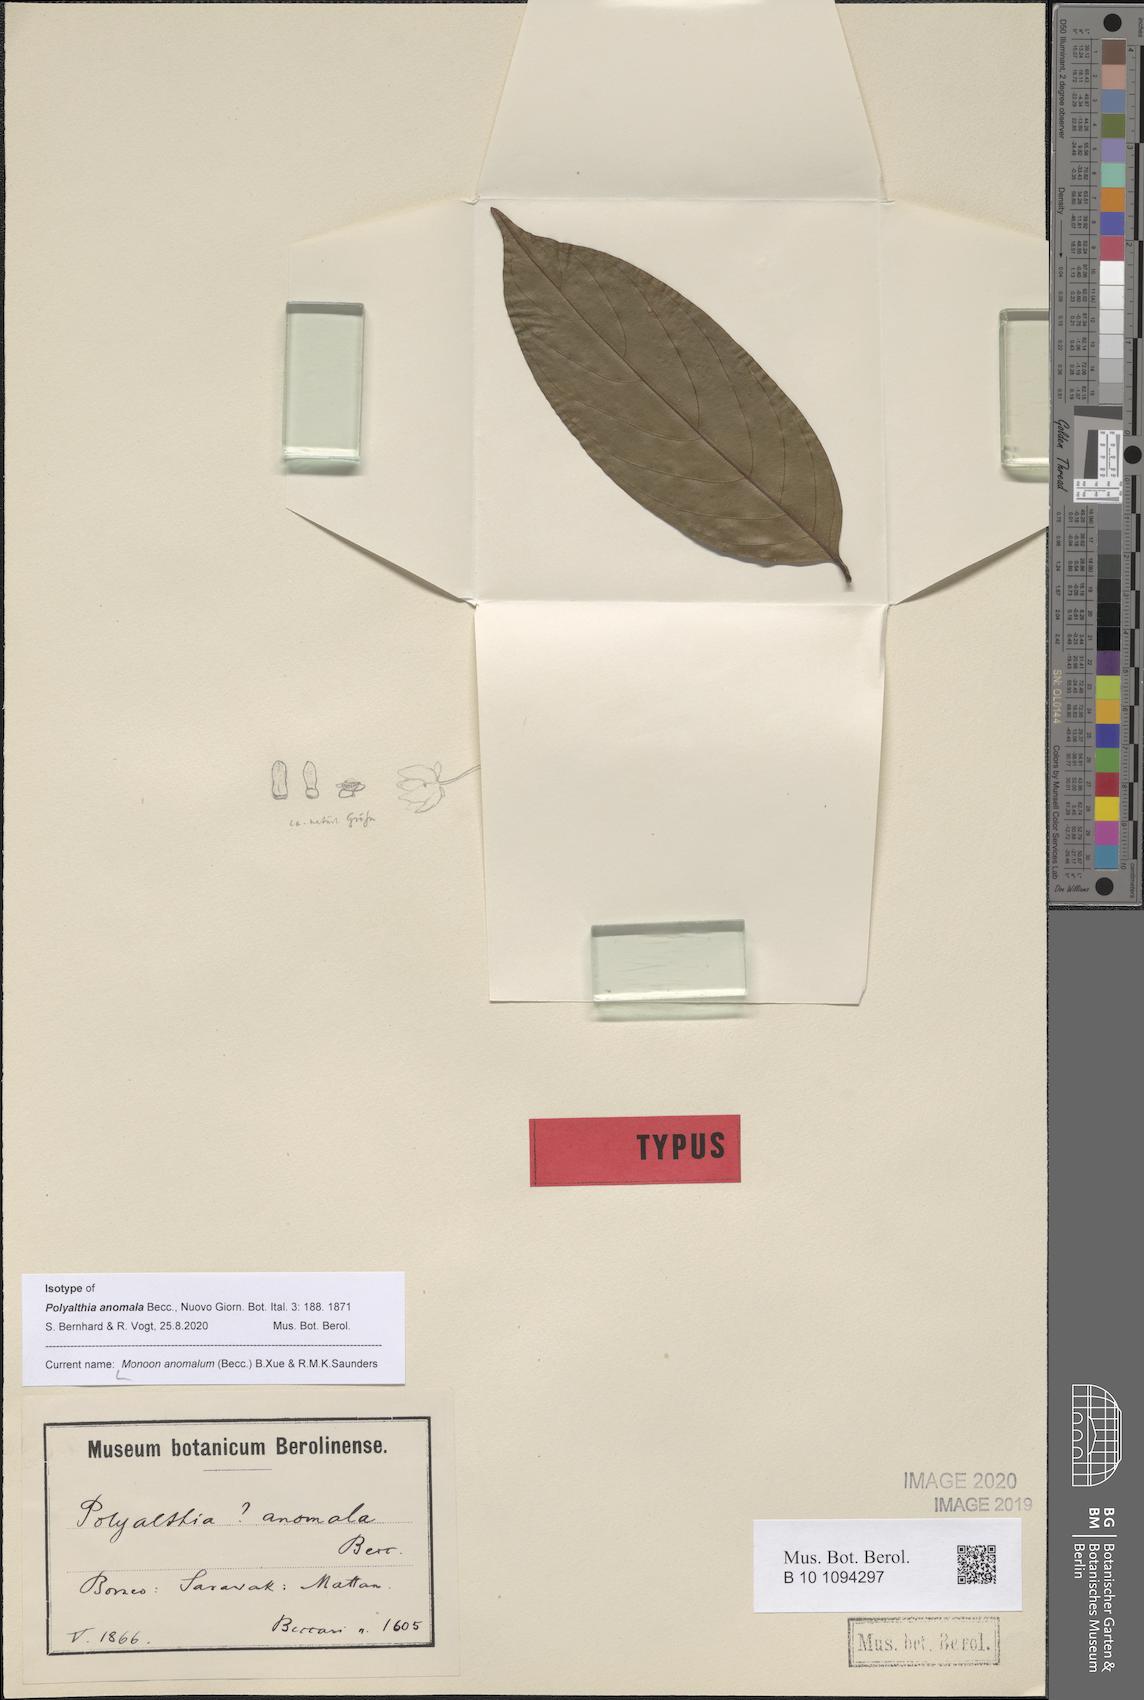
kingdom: Plantae
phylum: Tracheophyta
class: Magnoliopsida
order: Magnoliales
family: Annonaceae
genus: Polyalthia
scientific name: Polyalthia anomala
